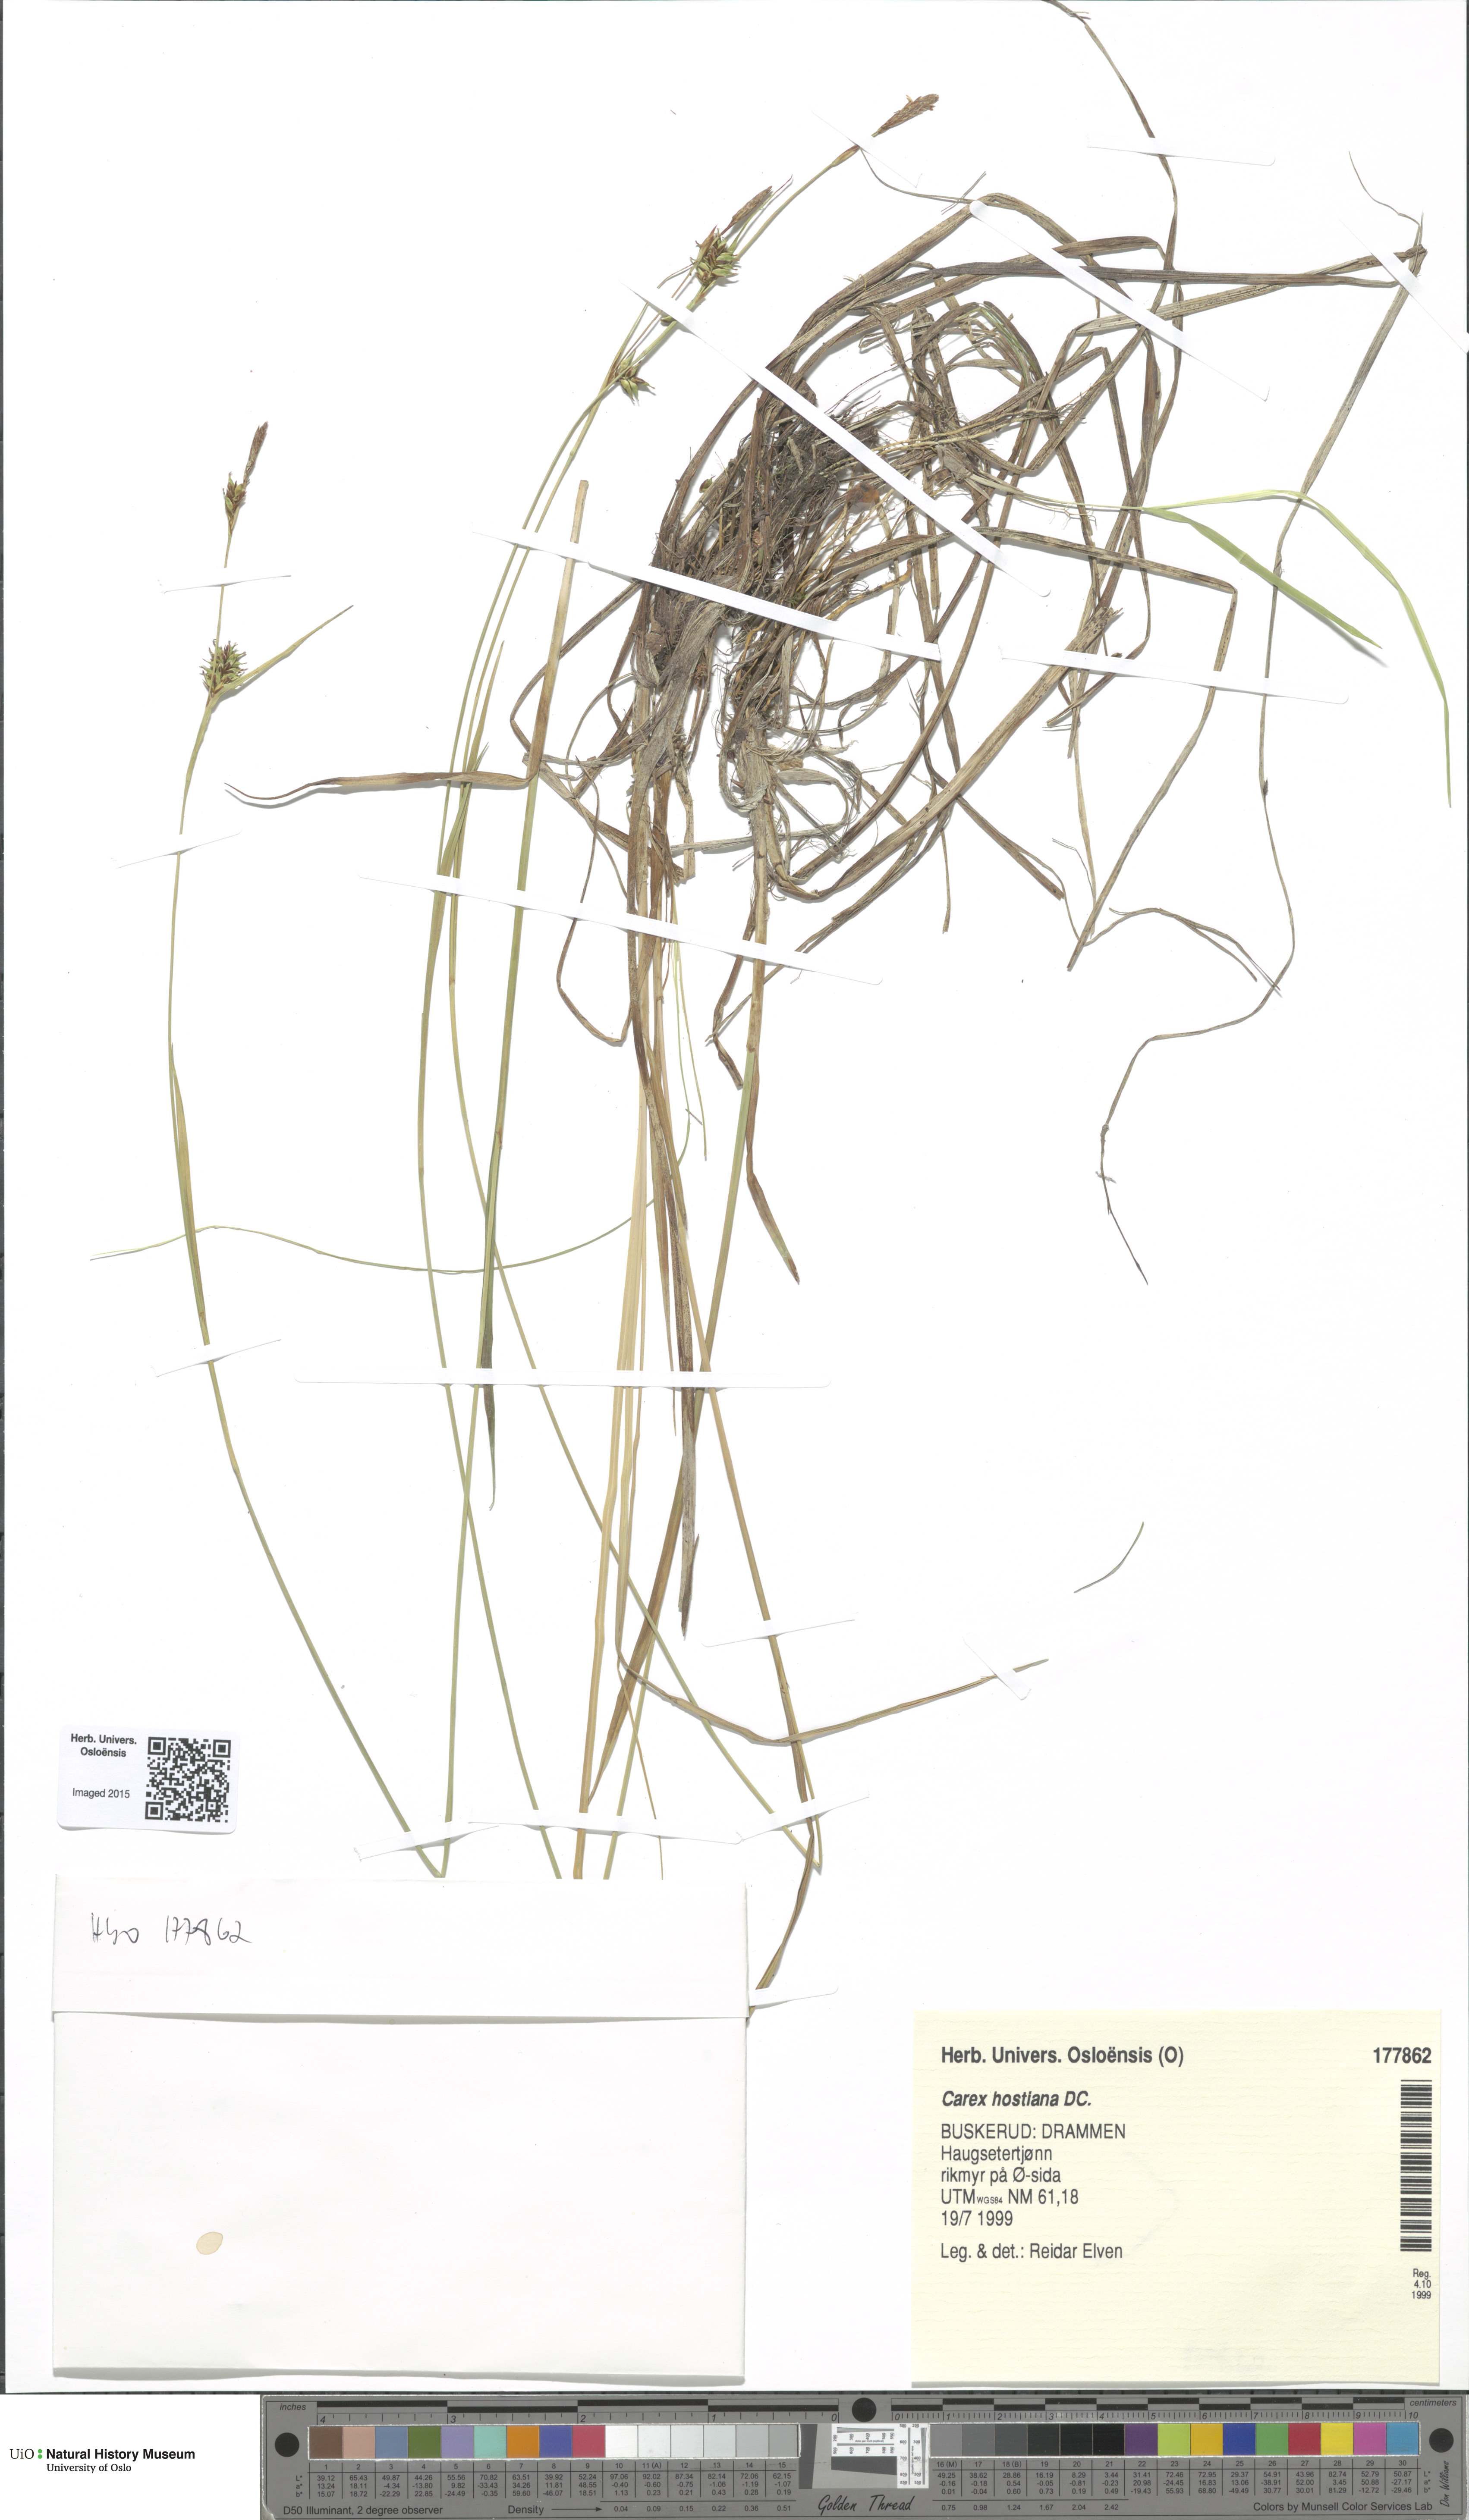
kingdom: Plantae
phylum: Tracheophyta
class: Liliopsida
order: Poales
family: Cyperaceae
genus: Carex
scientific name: Carex hostiana
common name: Tawny sedge
